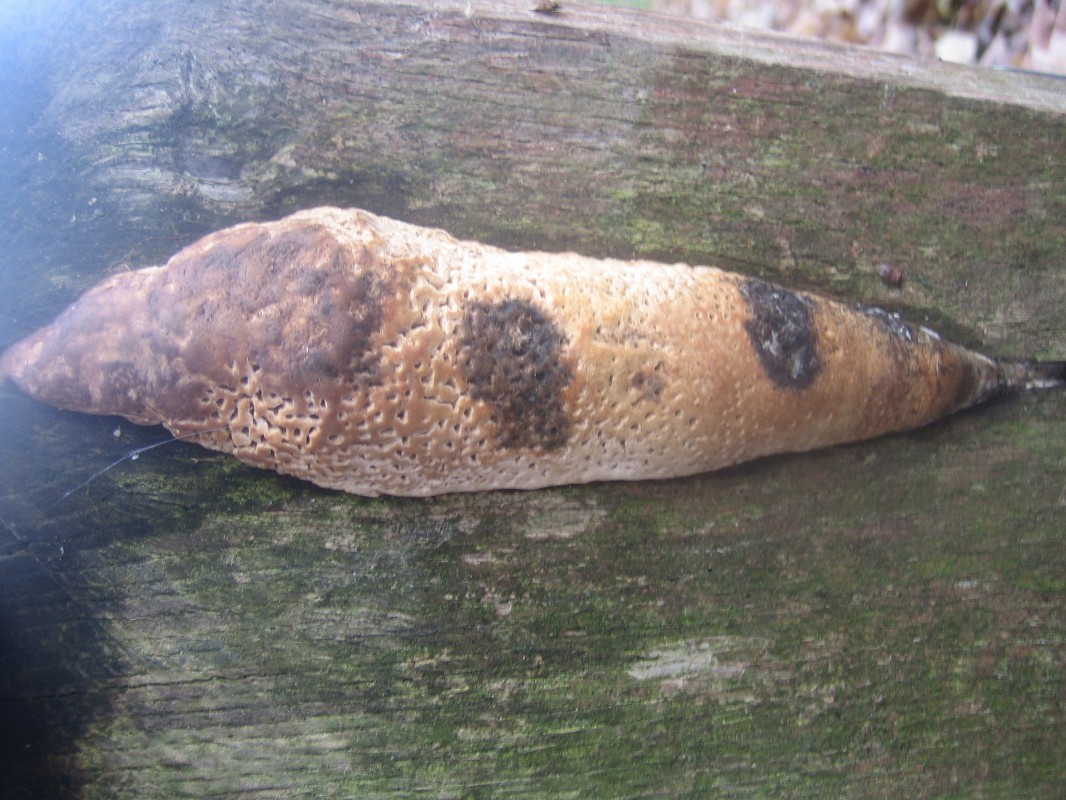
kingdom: Fungi
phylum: Basidiomycota
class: Agaricomycetes
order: Polyporales
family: Fomitopsidaceae
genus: Daedalea
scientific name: Daedalea quercina
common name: ege-labyrintsvamp
